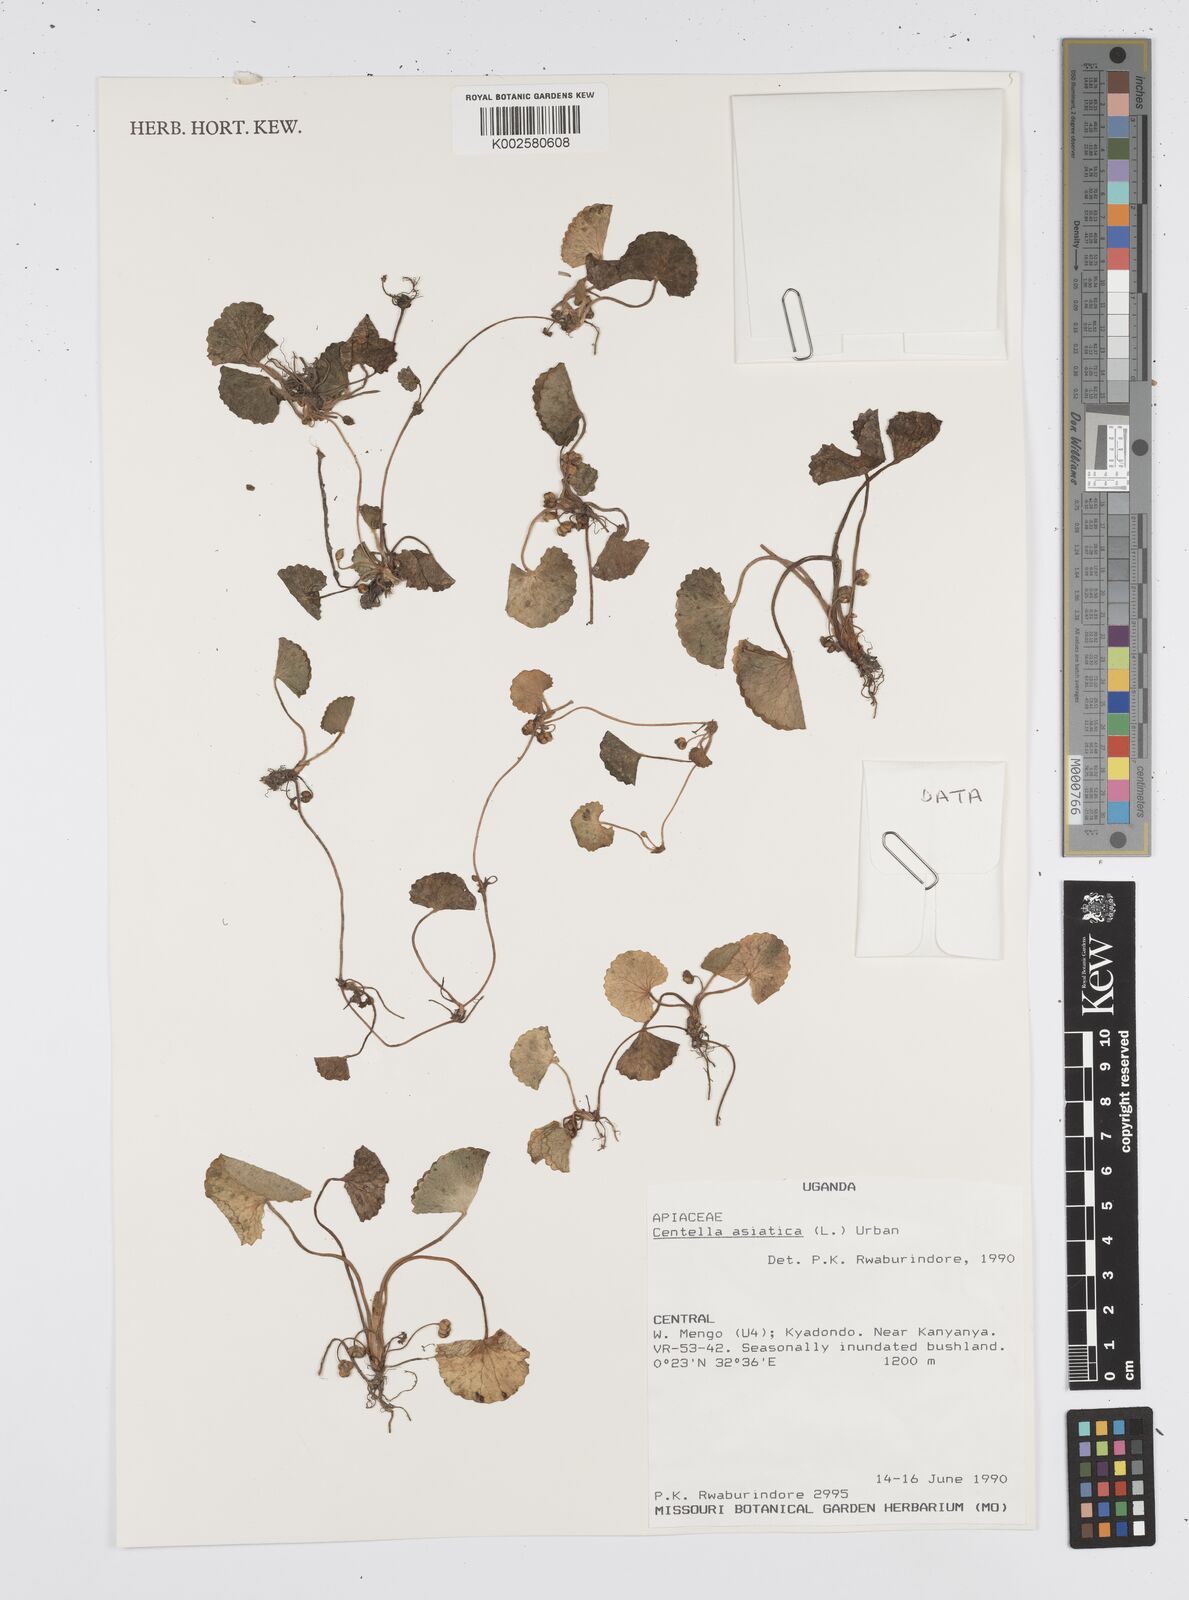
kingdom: Plantae
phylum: Tracheophyta
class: Magnoliopsida
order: Apiales
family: Apiaceae
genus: Centella
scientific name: Centella asiatica
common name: Spadeleaf
